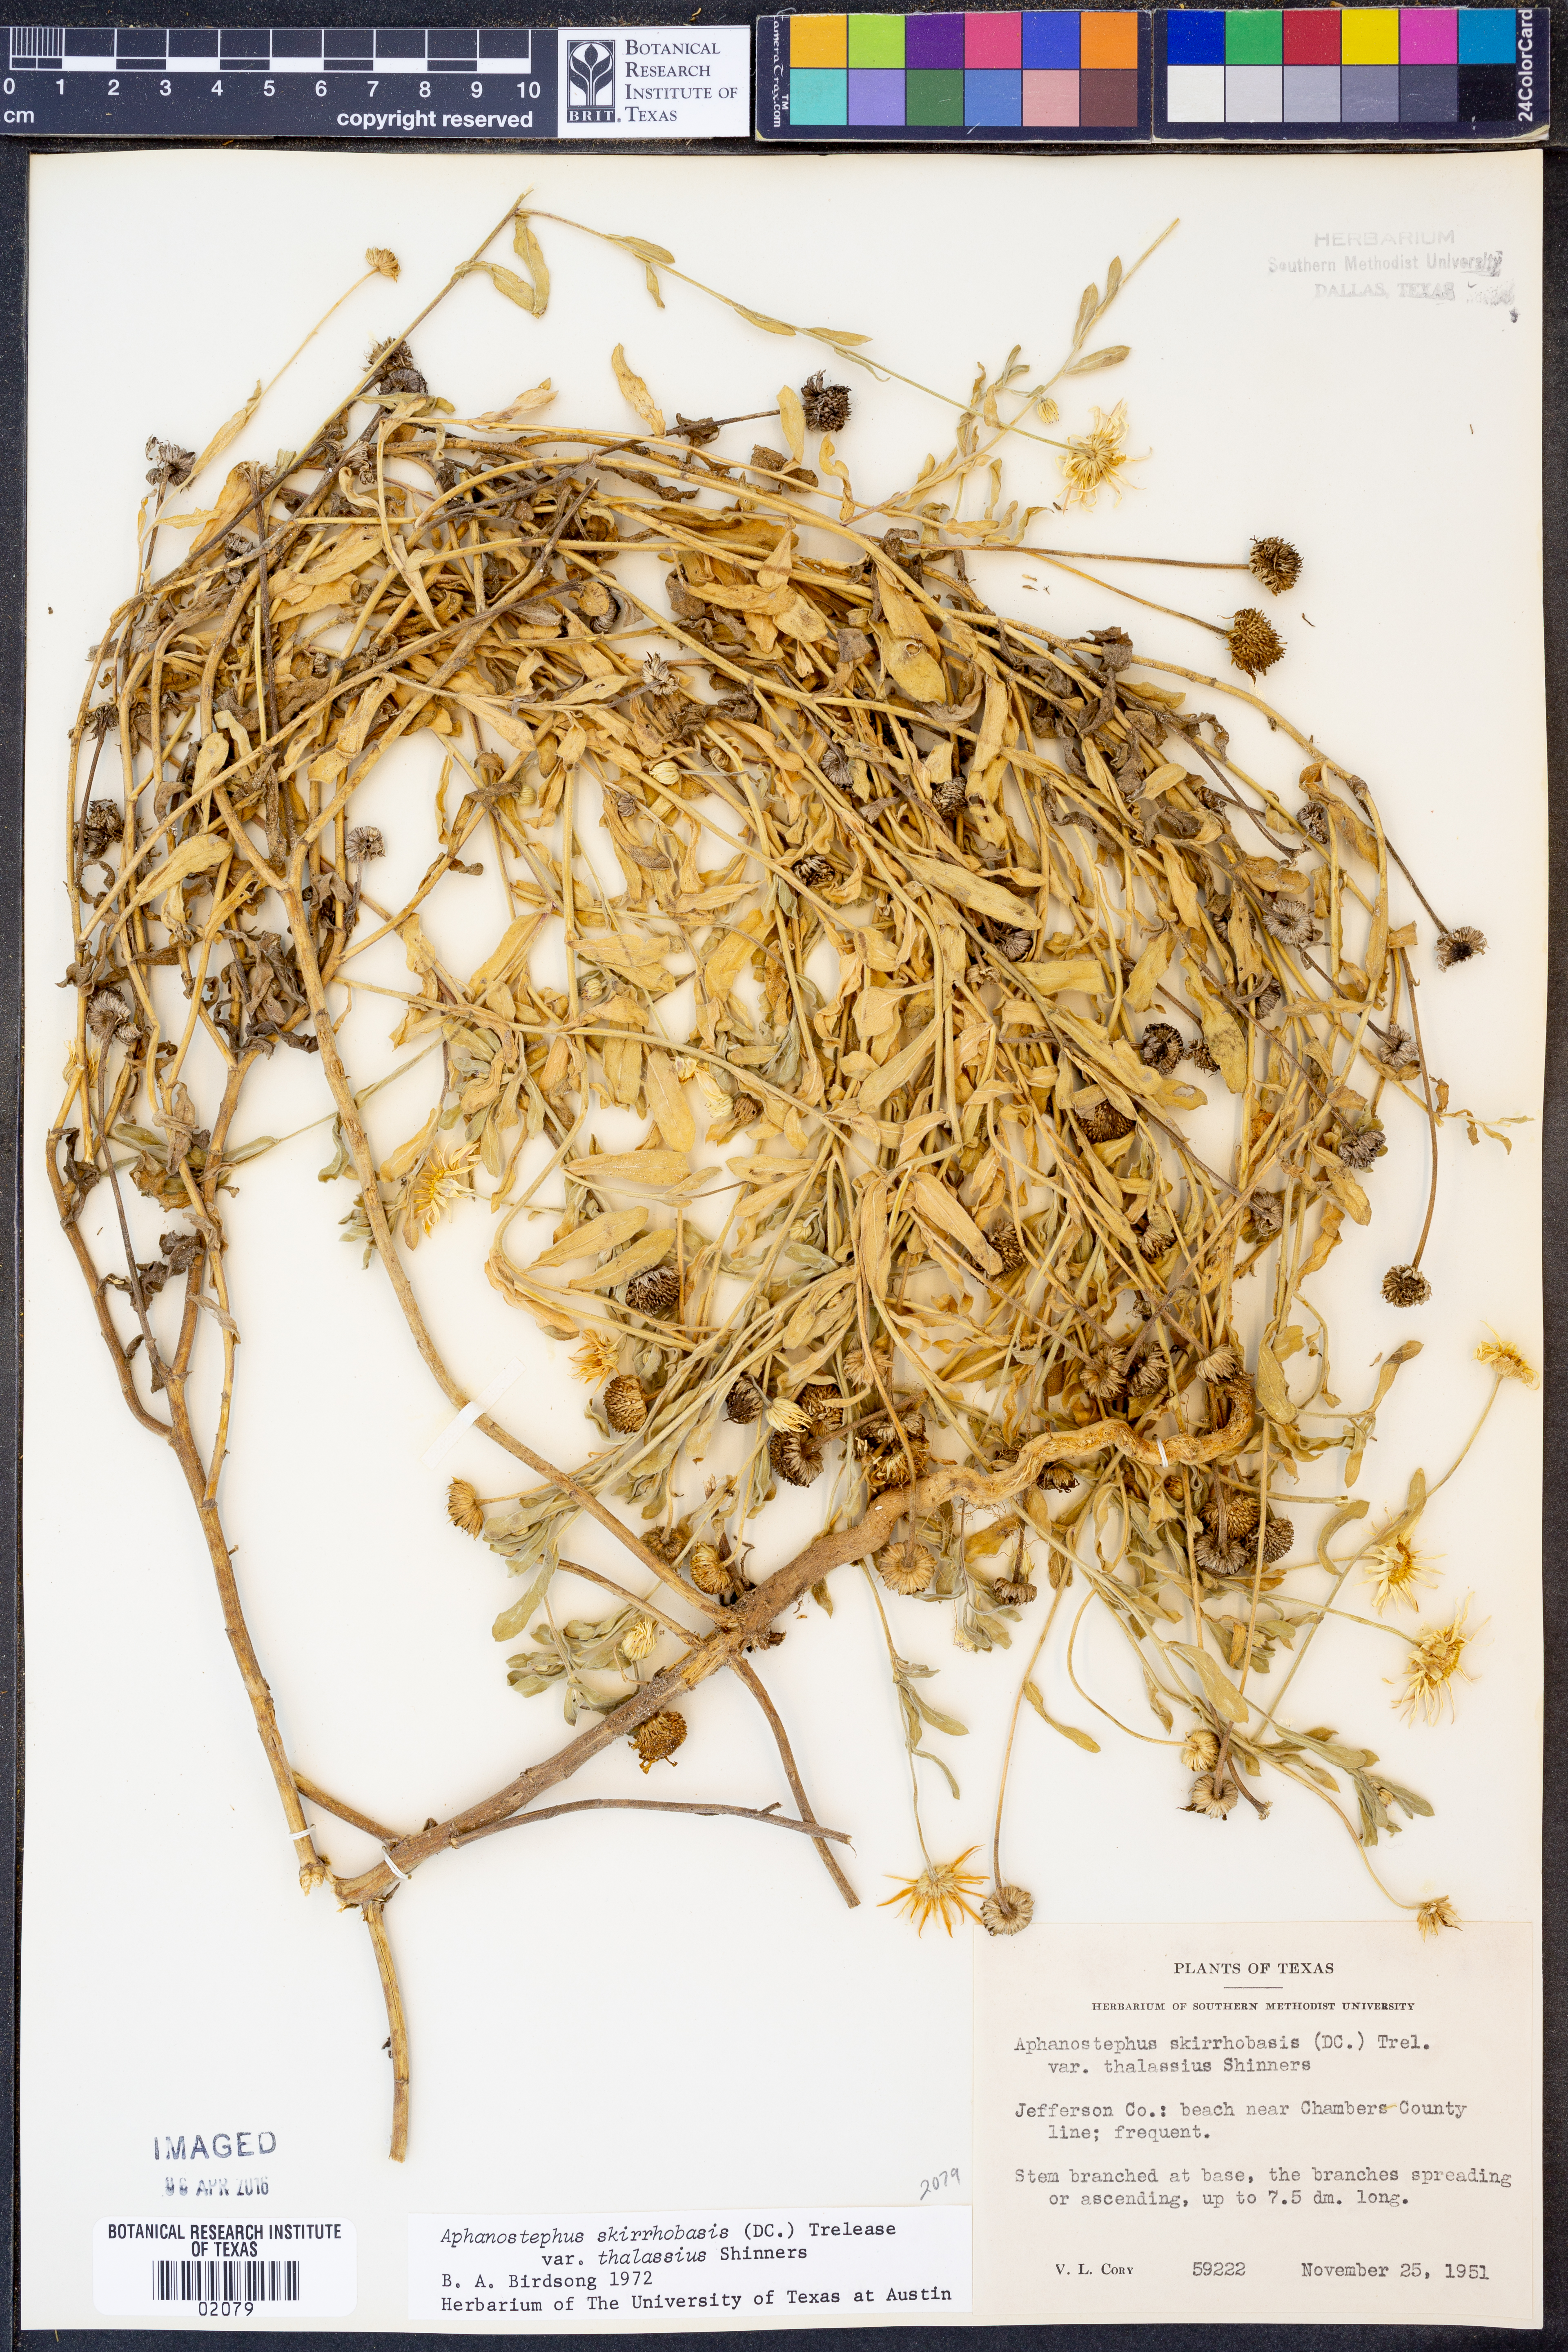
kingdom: Plantae
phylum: Tracheophyta
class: Magnoliopsida
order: Asterales
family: Asteraceae
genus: Aphanostephus
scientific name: Aphanostephus skirrhobasis
